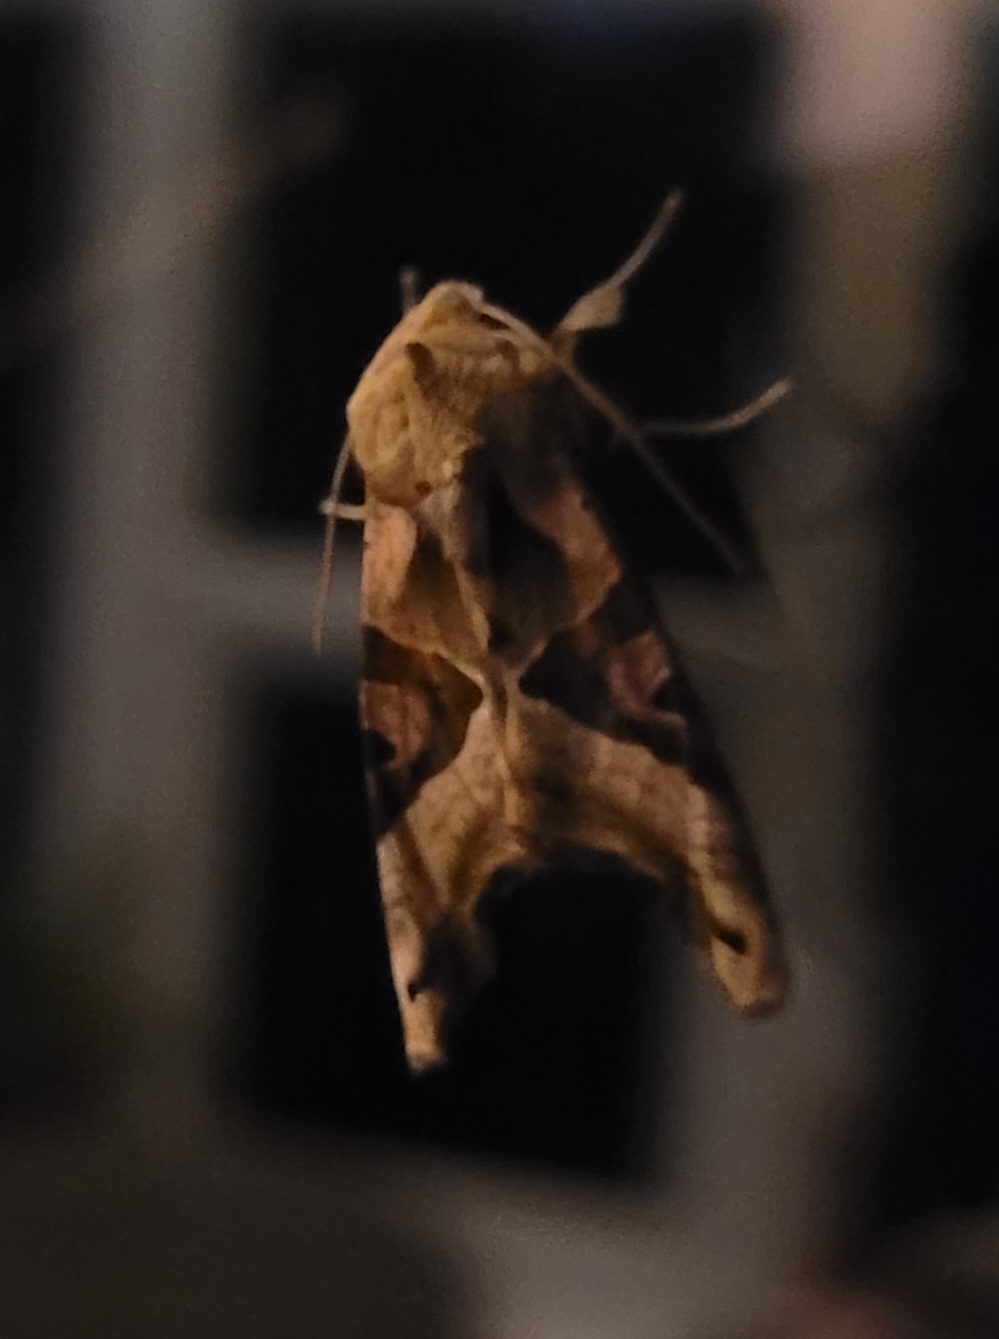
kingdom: Animalia
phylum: Arthropoda
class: Insecta
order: Lepidoptera
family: Noctuidae
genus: Phlogophora
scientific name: Phlogophora meticulosa
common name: Agatugle
